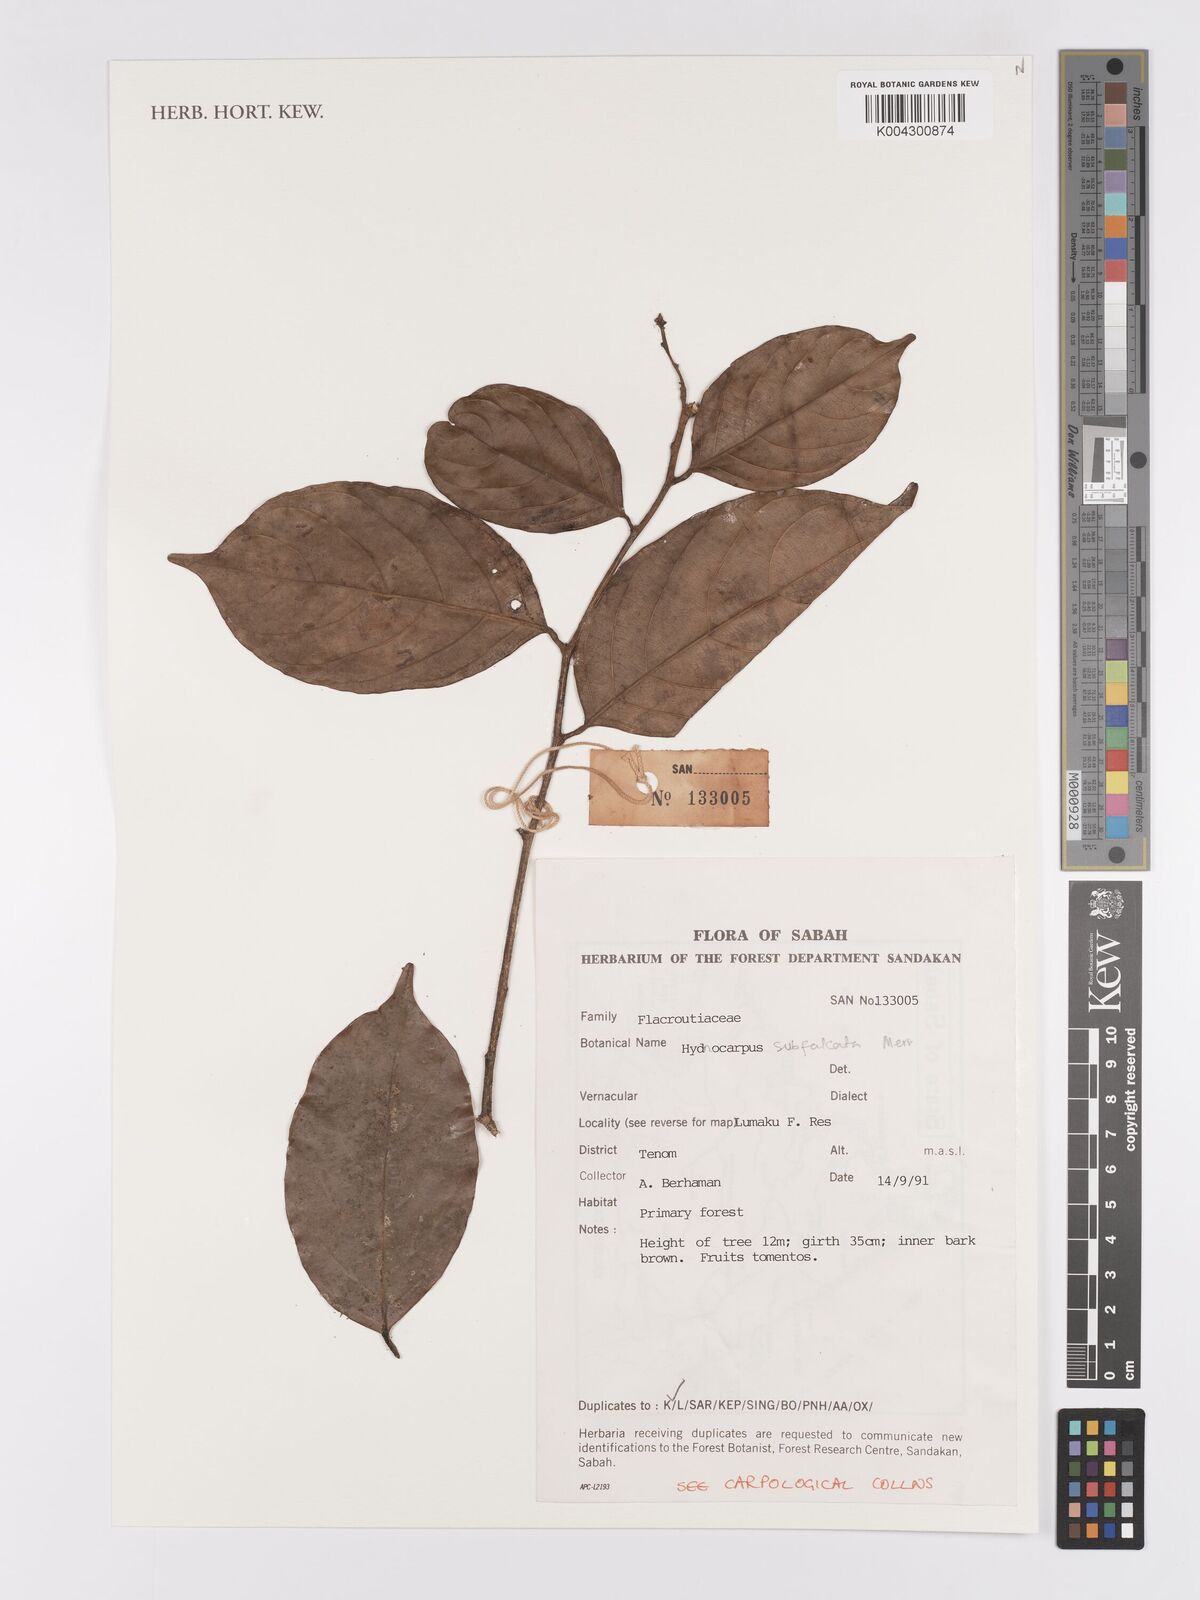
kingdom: Plantae
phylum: Tracheophyta
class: Magnoliopsida
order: Malpighiales
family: Achariaceae
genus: Hydnocarpus
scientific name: Hydnocarpus subfalcatus
